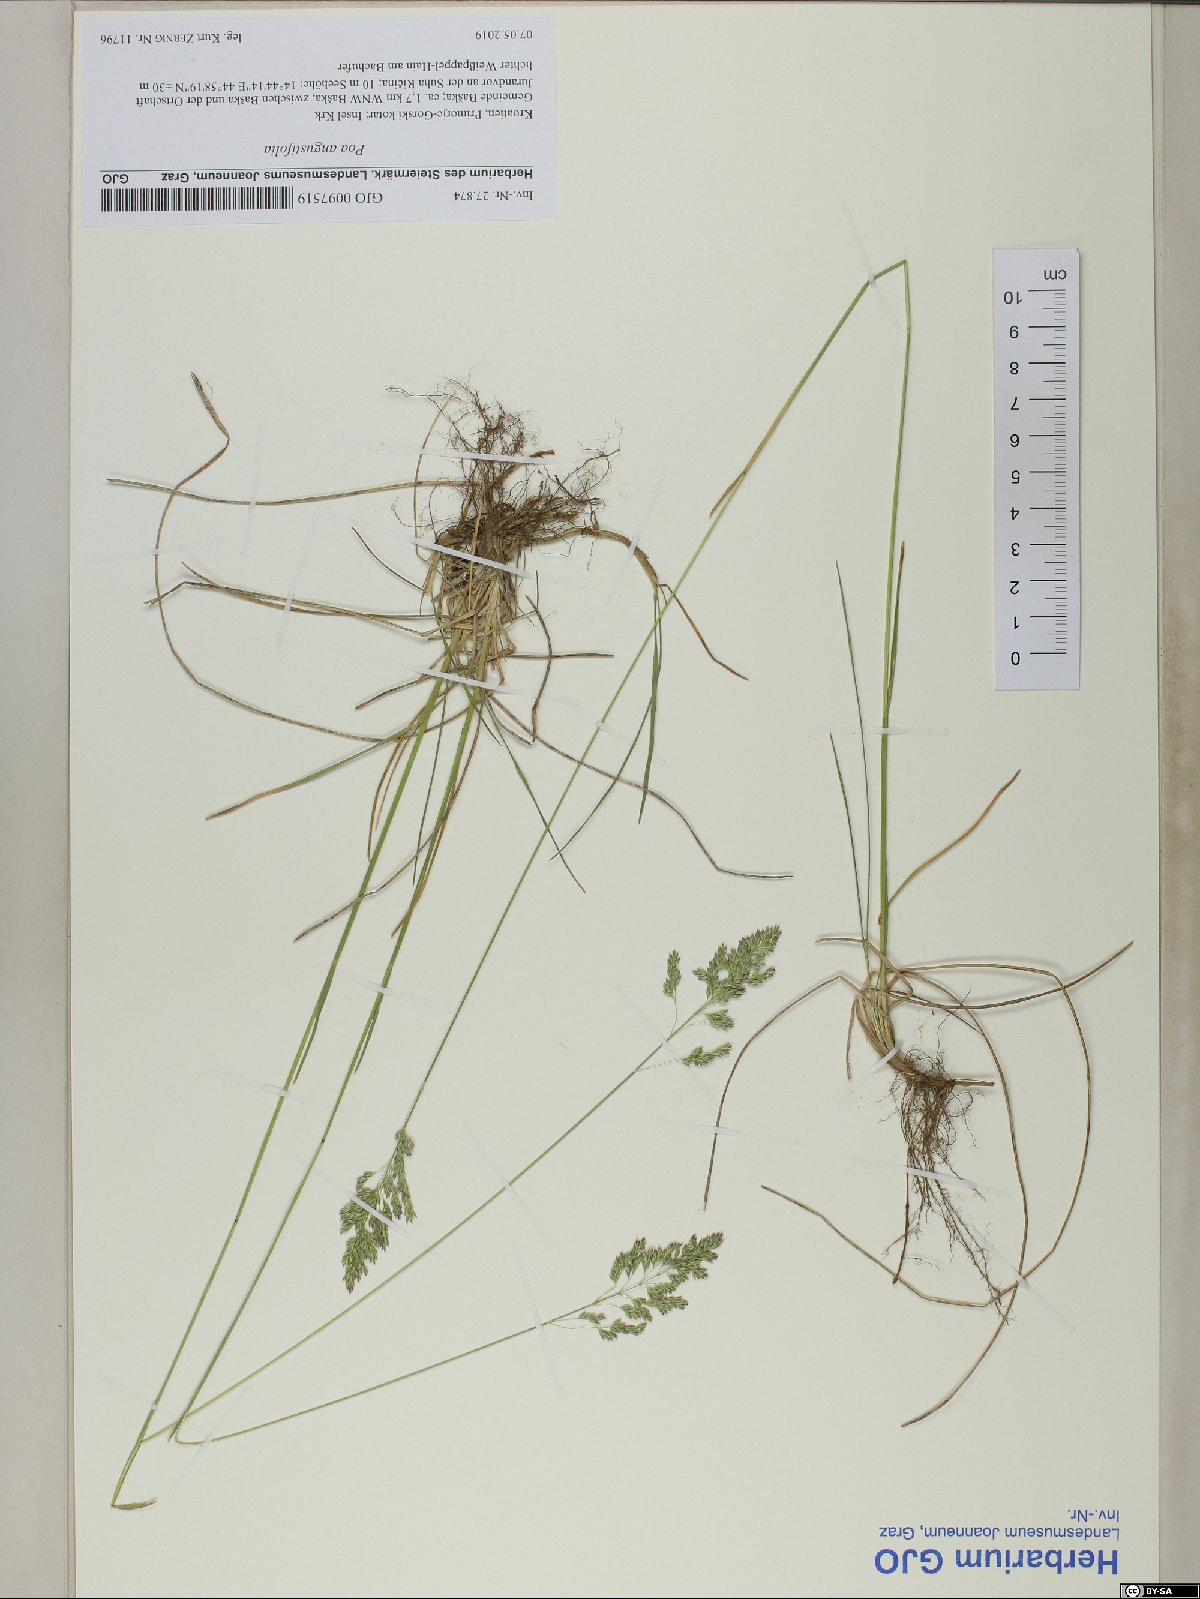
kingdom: Plantae
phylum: Tracheophyta
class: Liliopsida
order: Poales
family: Poaceae
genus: Poa
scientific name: Poa angustifolia
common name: Narrow-leaved meadow-grass
